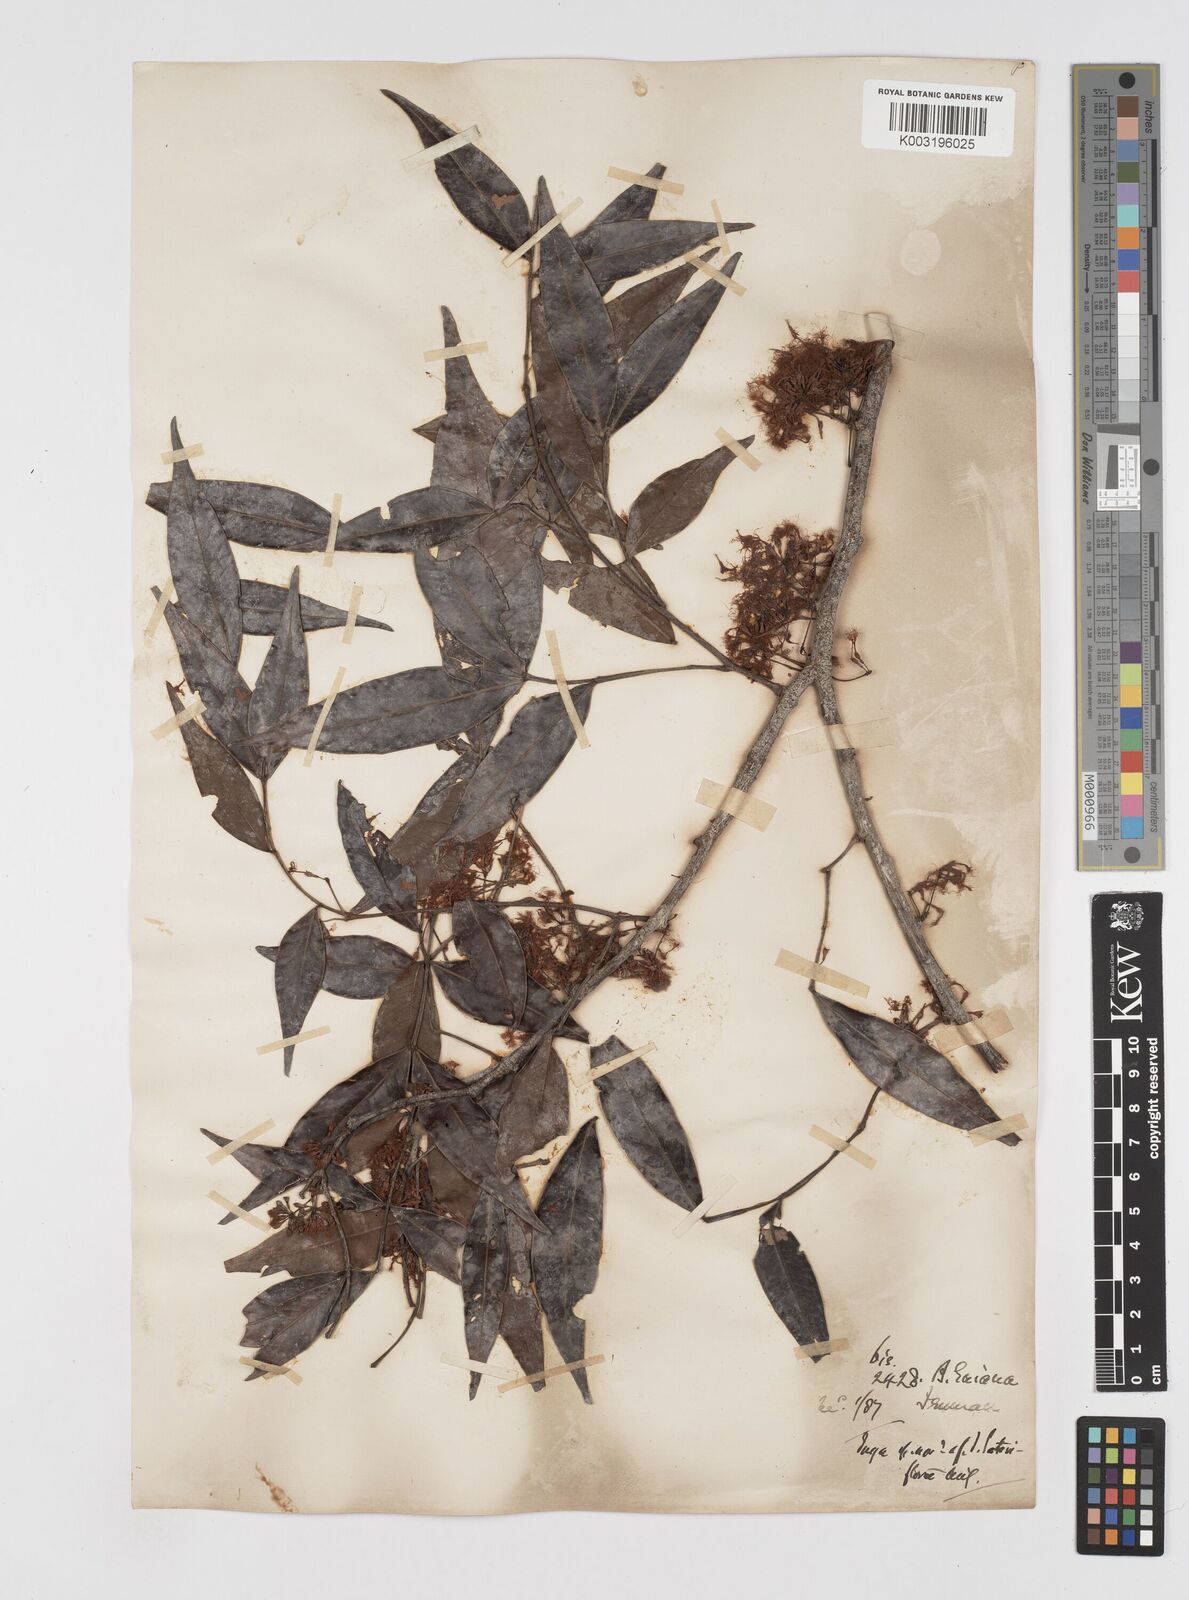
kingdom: Plantae
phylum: Tracheophyta
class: Magnoliopsida
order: Fabales
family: Fabaceae
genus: Inga
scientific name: Inga lateriflora
